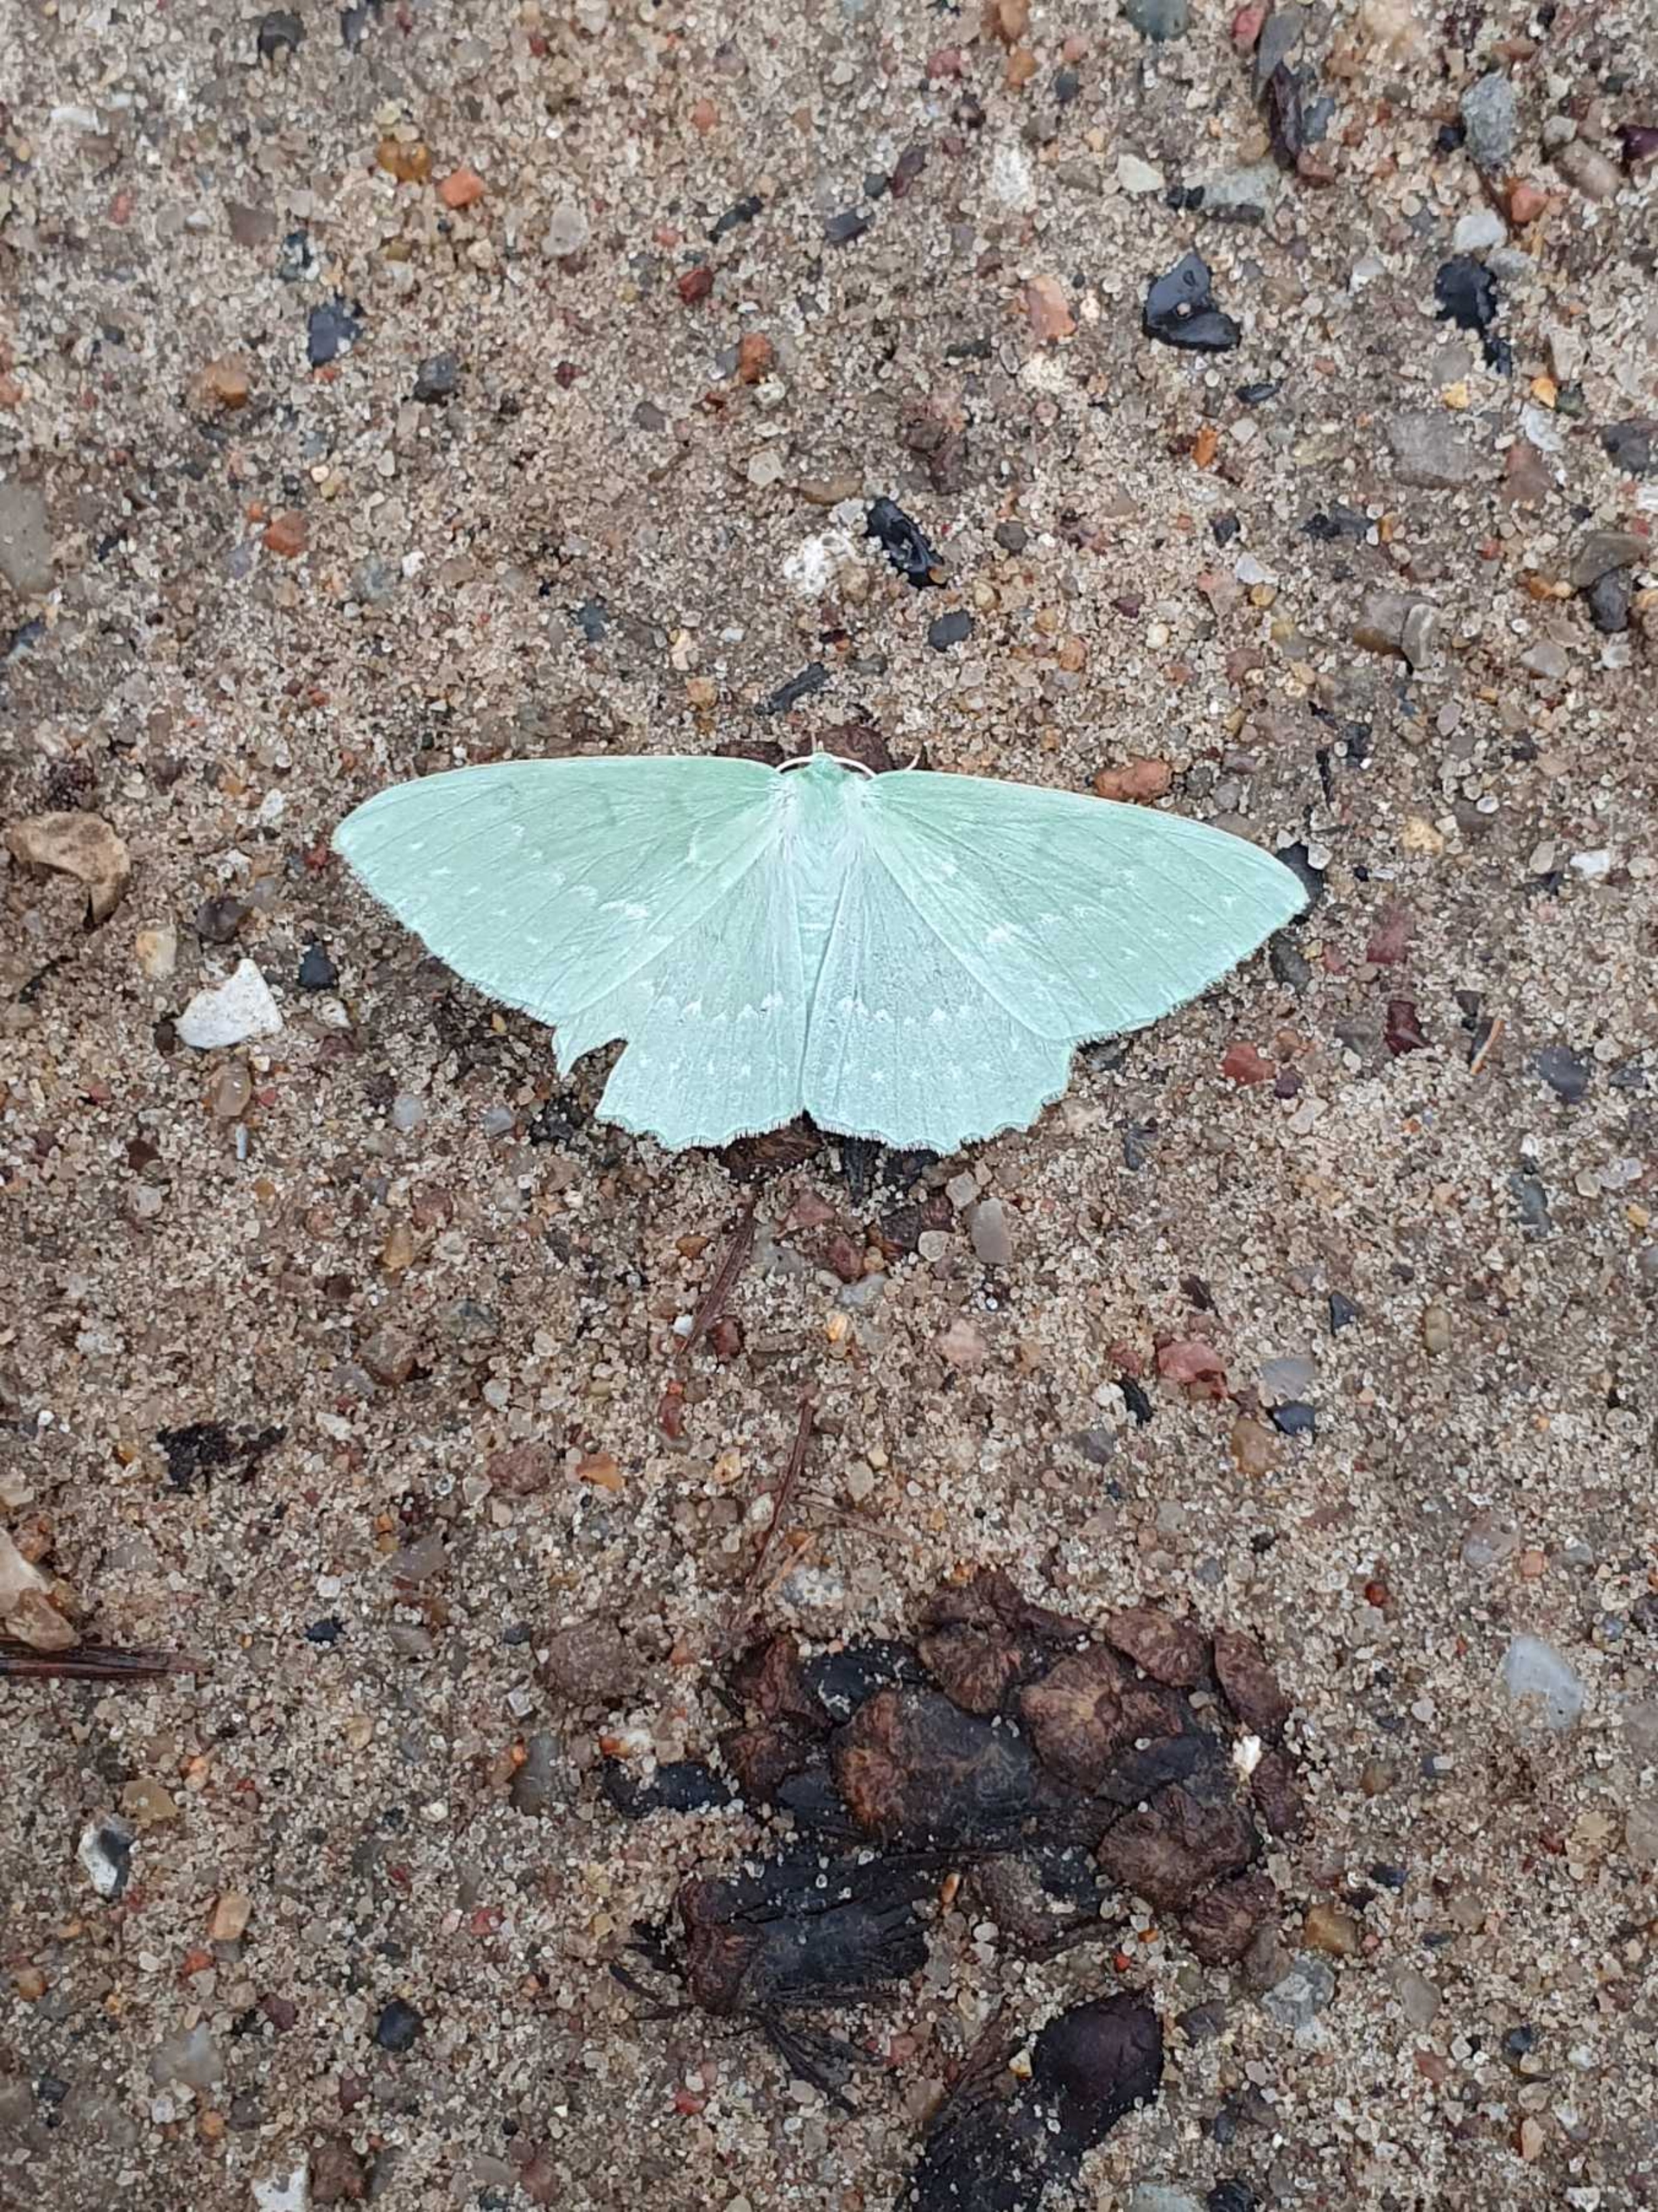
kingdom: Animalia
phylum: Arthropoda
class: Insecta
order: Lepidoptera
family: Geometridae
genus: Geometra
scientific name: Geometra papilionaria
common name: Grøn birkemåler
